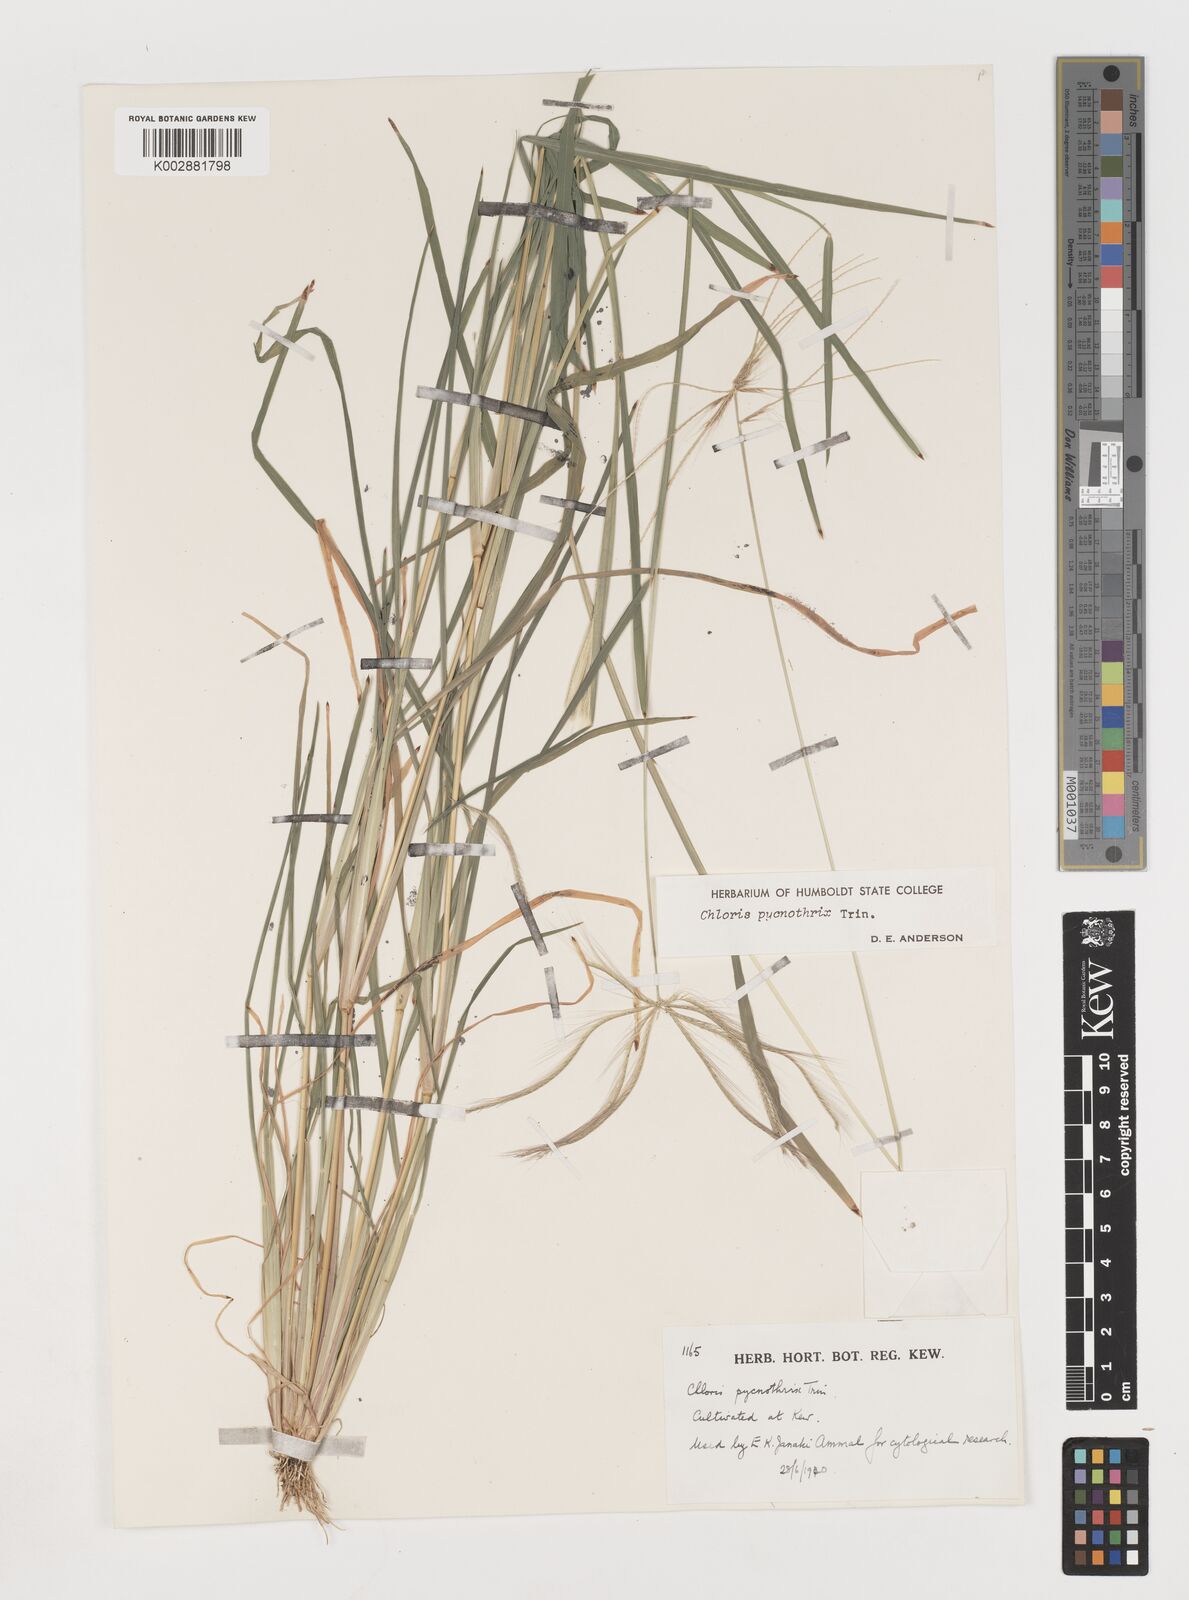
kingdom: Plantae
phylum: Tracheophyta
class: Liliopsida
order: Poales
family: Poaceae
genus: Chloris
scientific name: Chloris pycnothrix
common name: Spiderweb chloris
